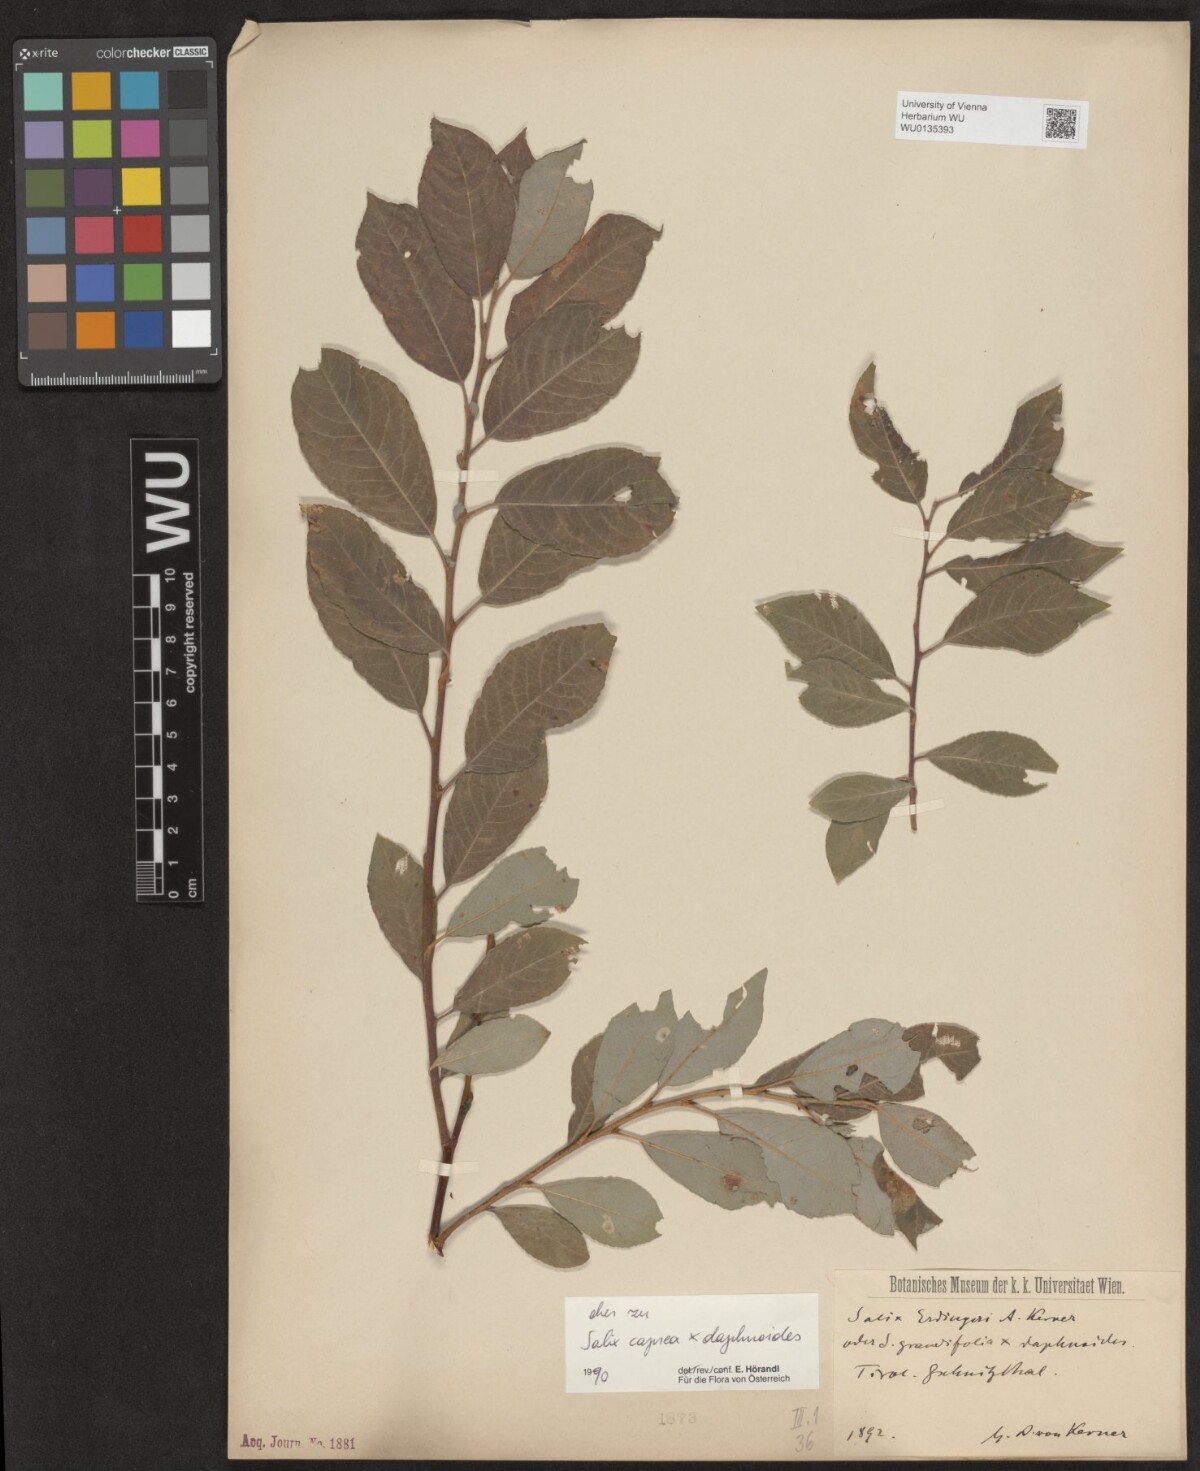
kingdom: Plantae
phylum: Tracheophyta
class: Magnoliopsida
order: Malpighiales
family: Salicaceae
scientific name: Salicaceae
